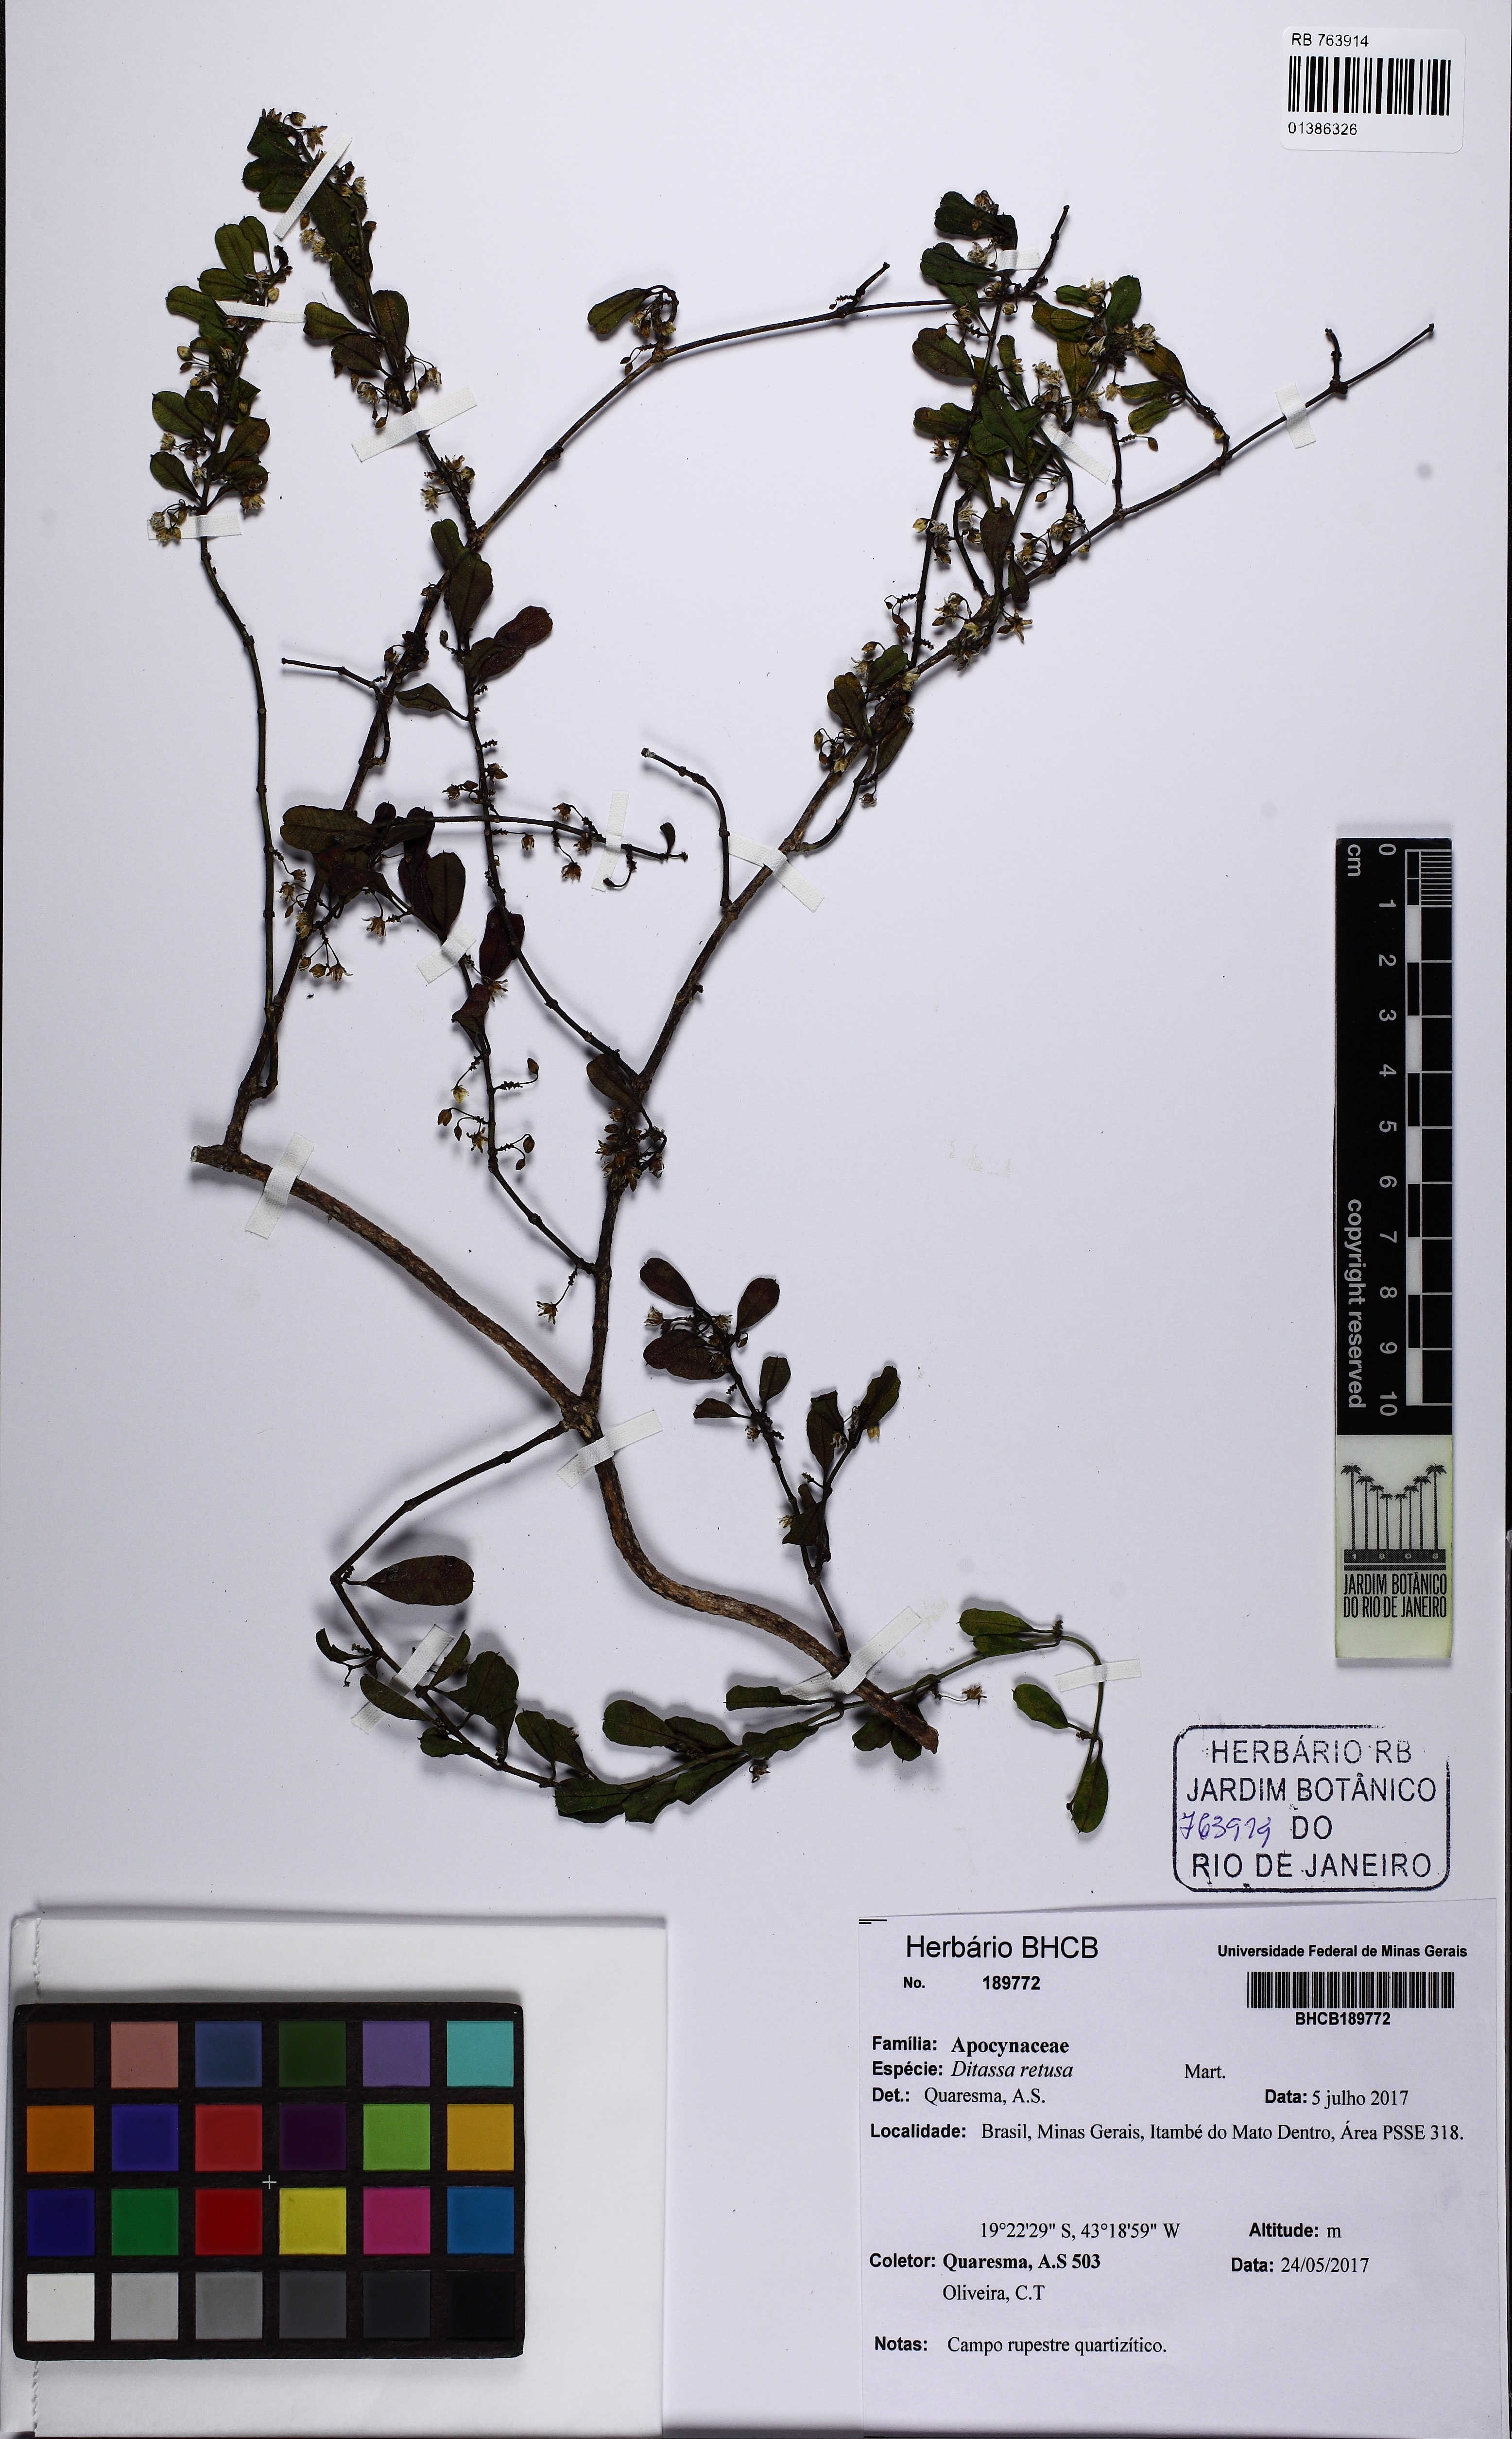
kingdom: Plantae
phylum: Tracheophyta
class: Magnoliopsida
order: Gentianales
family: Apocynaceae
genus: Ditassa
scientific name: Ditassa retusa
